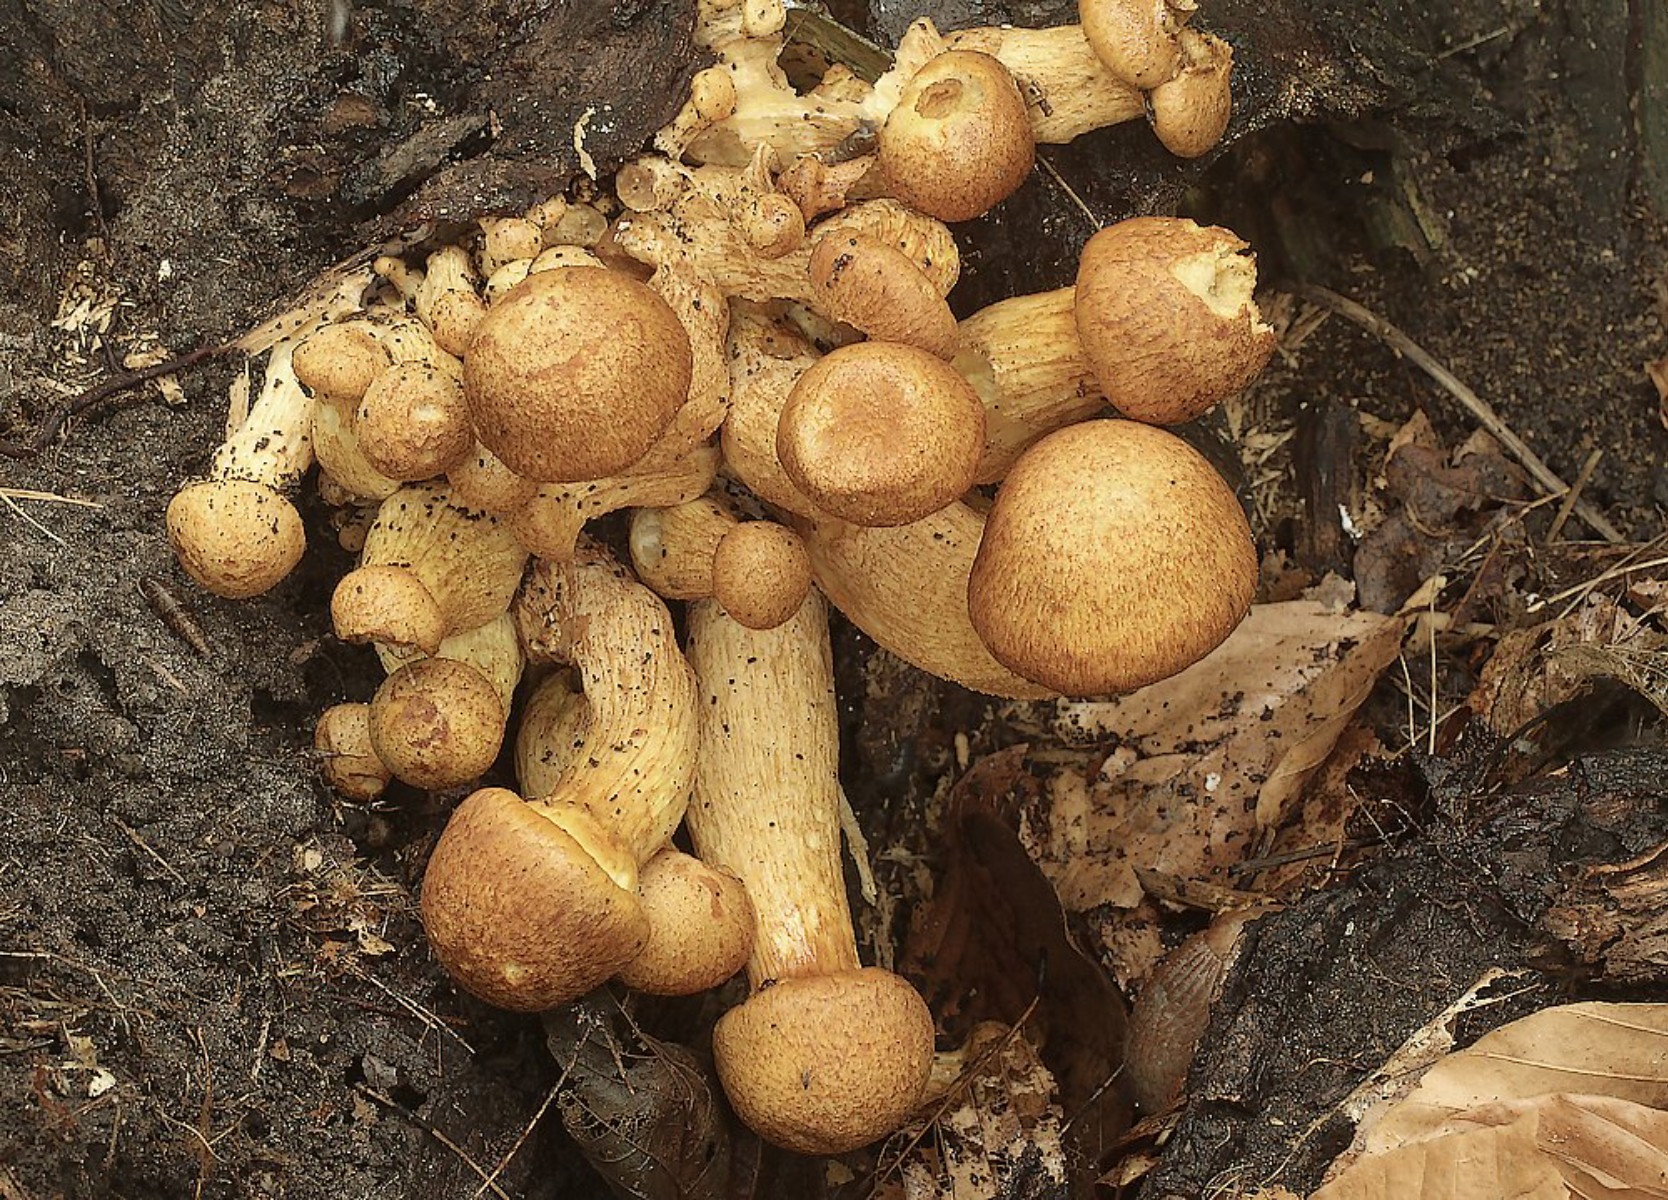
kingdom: Fungi
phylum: Basidiomycota
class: Agaricomycetes
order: Agaricales
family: Hymenogastraceae
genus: Gymnopilus
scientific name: Gymnopilus spectabilis
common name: fibret flammehat
